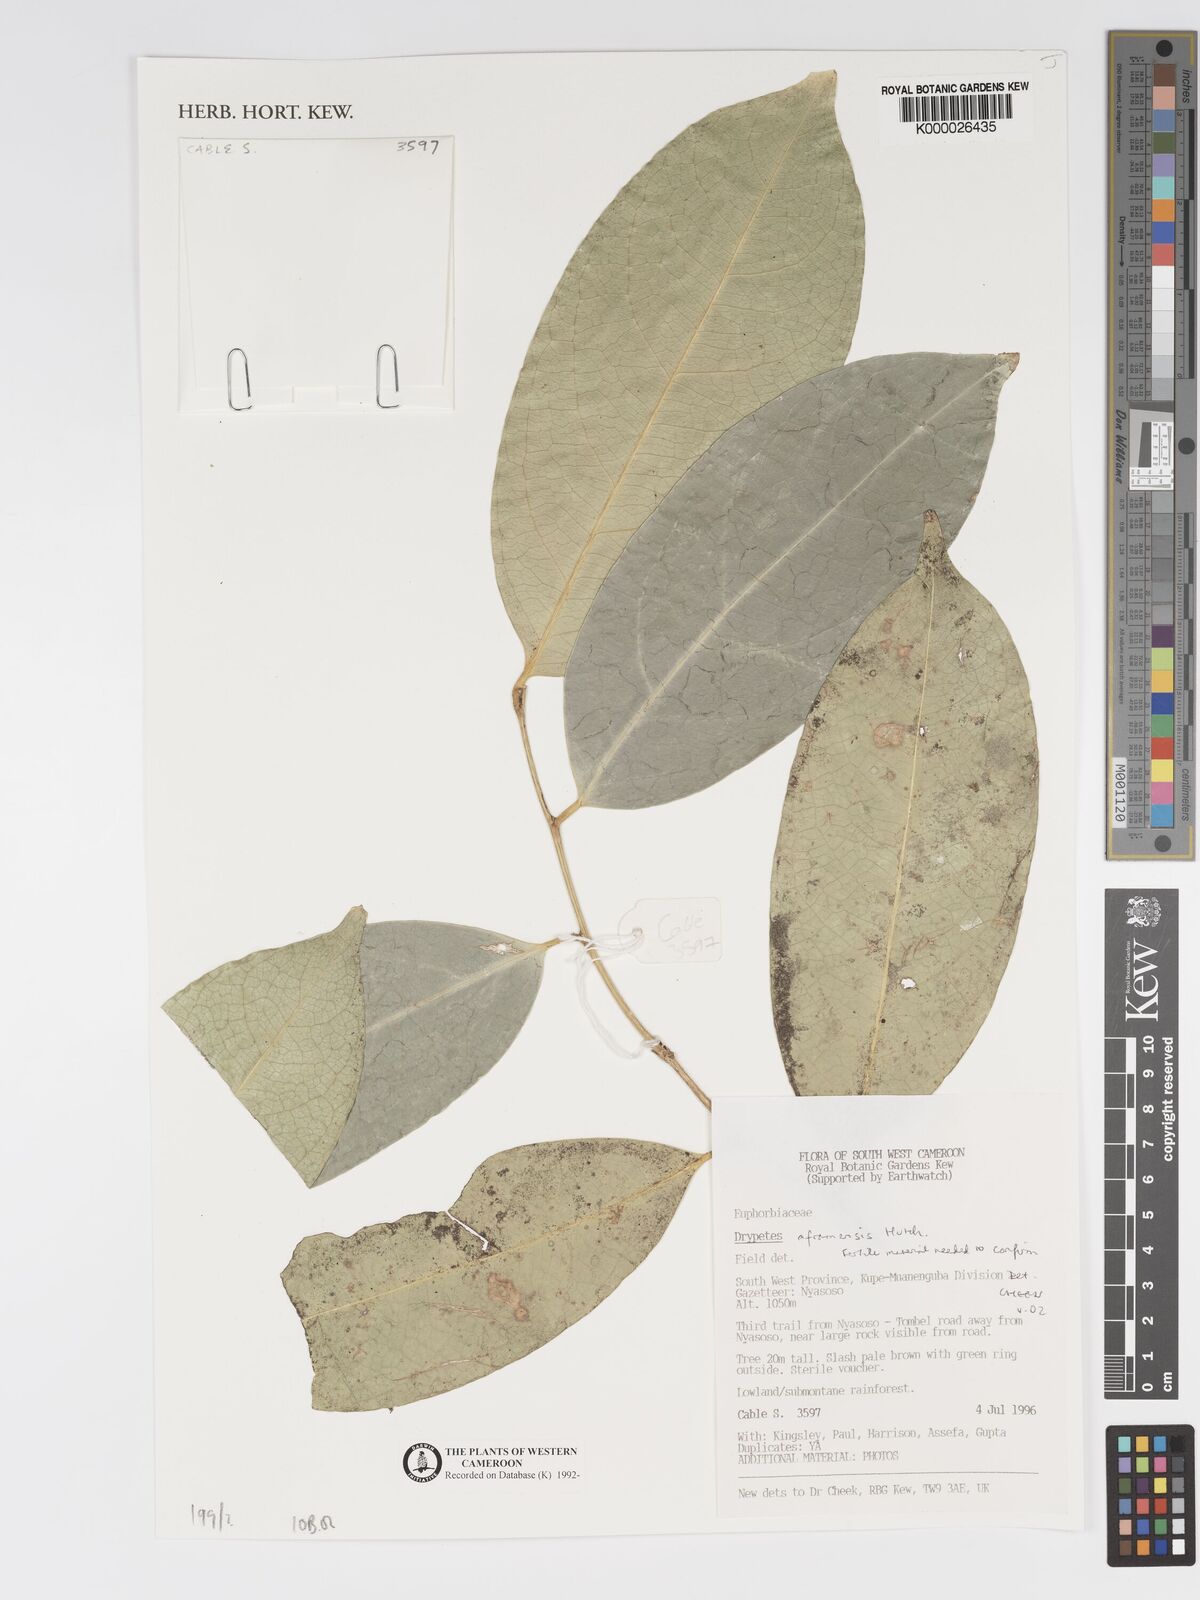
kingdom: Plantae
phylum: Tracheophyta
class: Magnoliopsida
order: Malpighiales
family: Putranjivaceae
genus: Drypetes
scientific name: Drypetes aframensis
